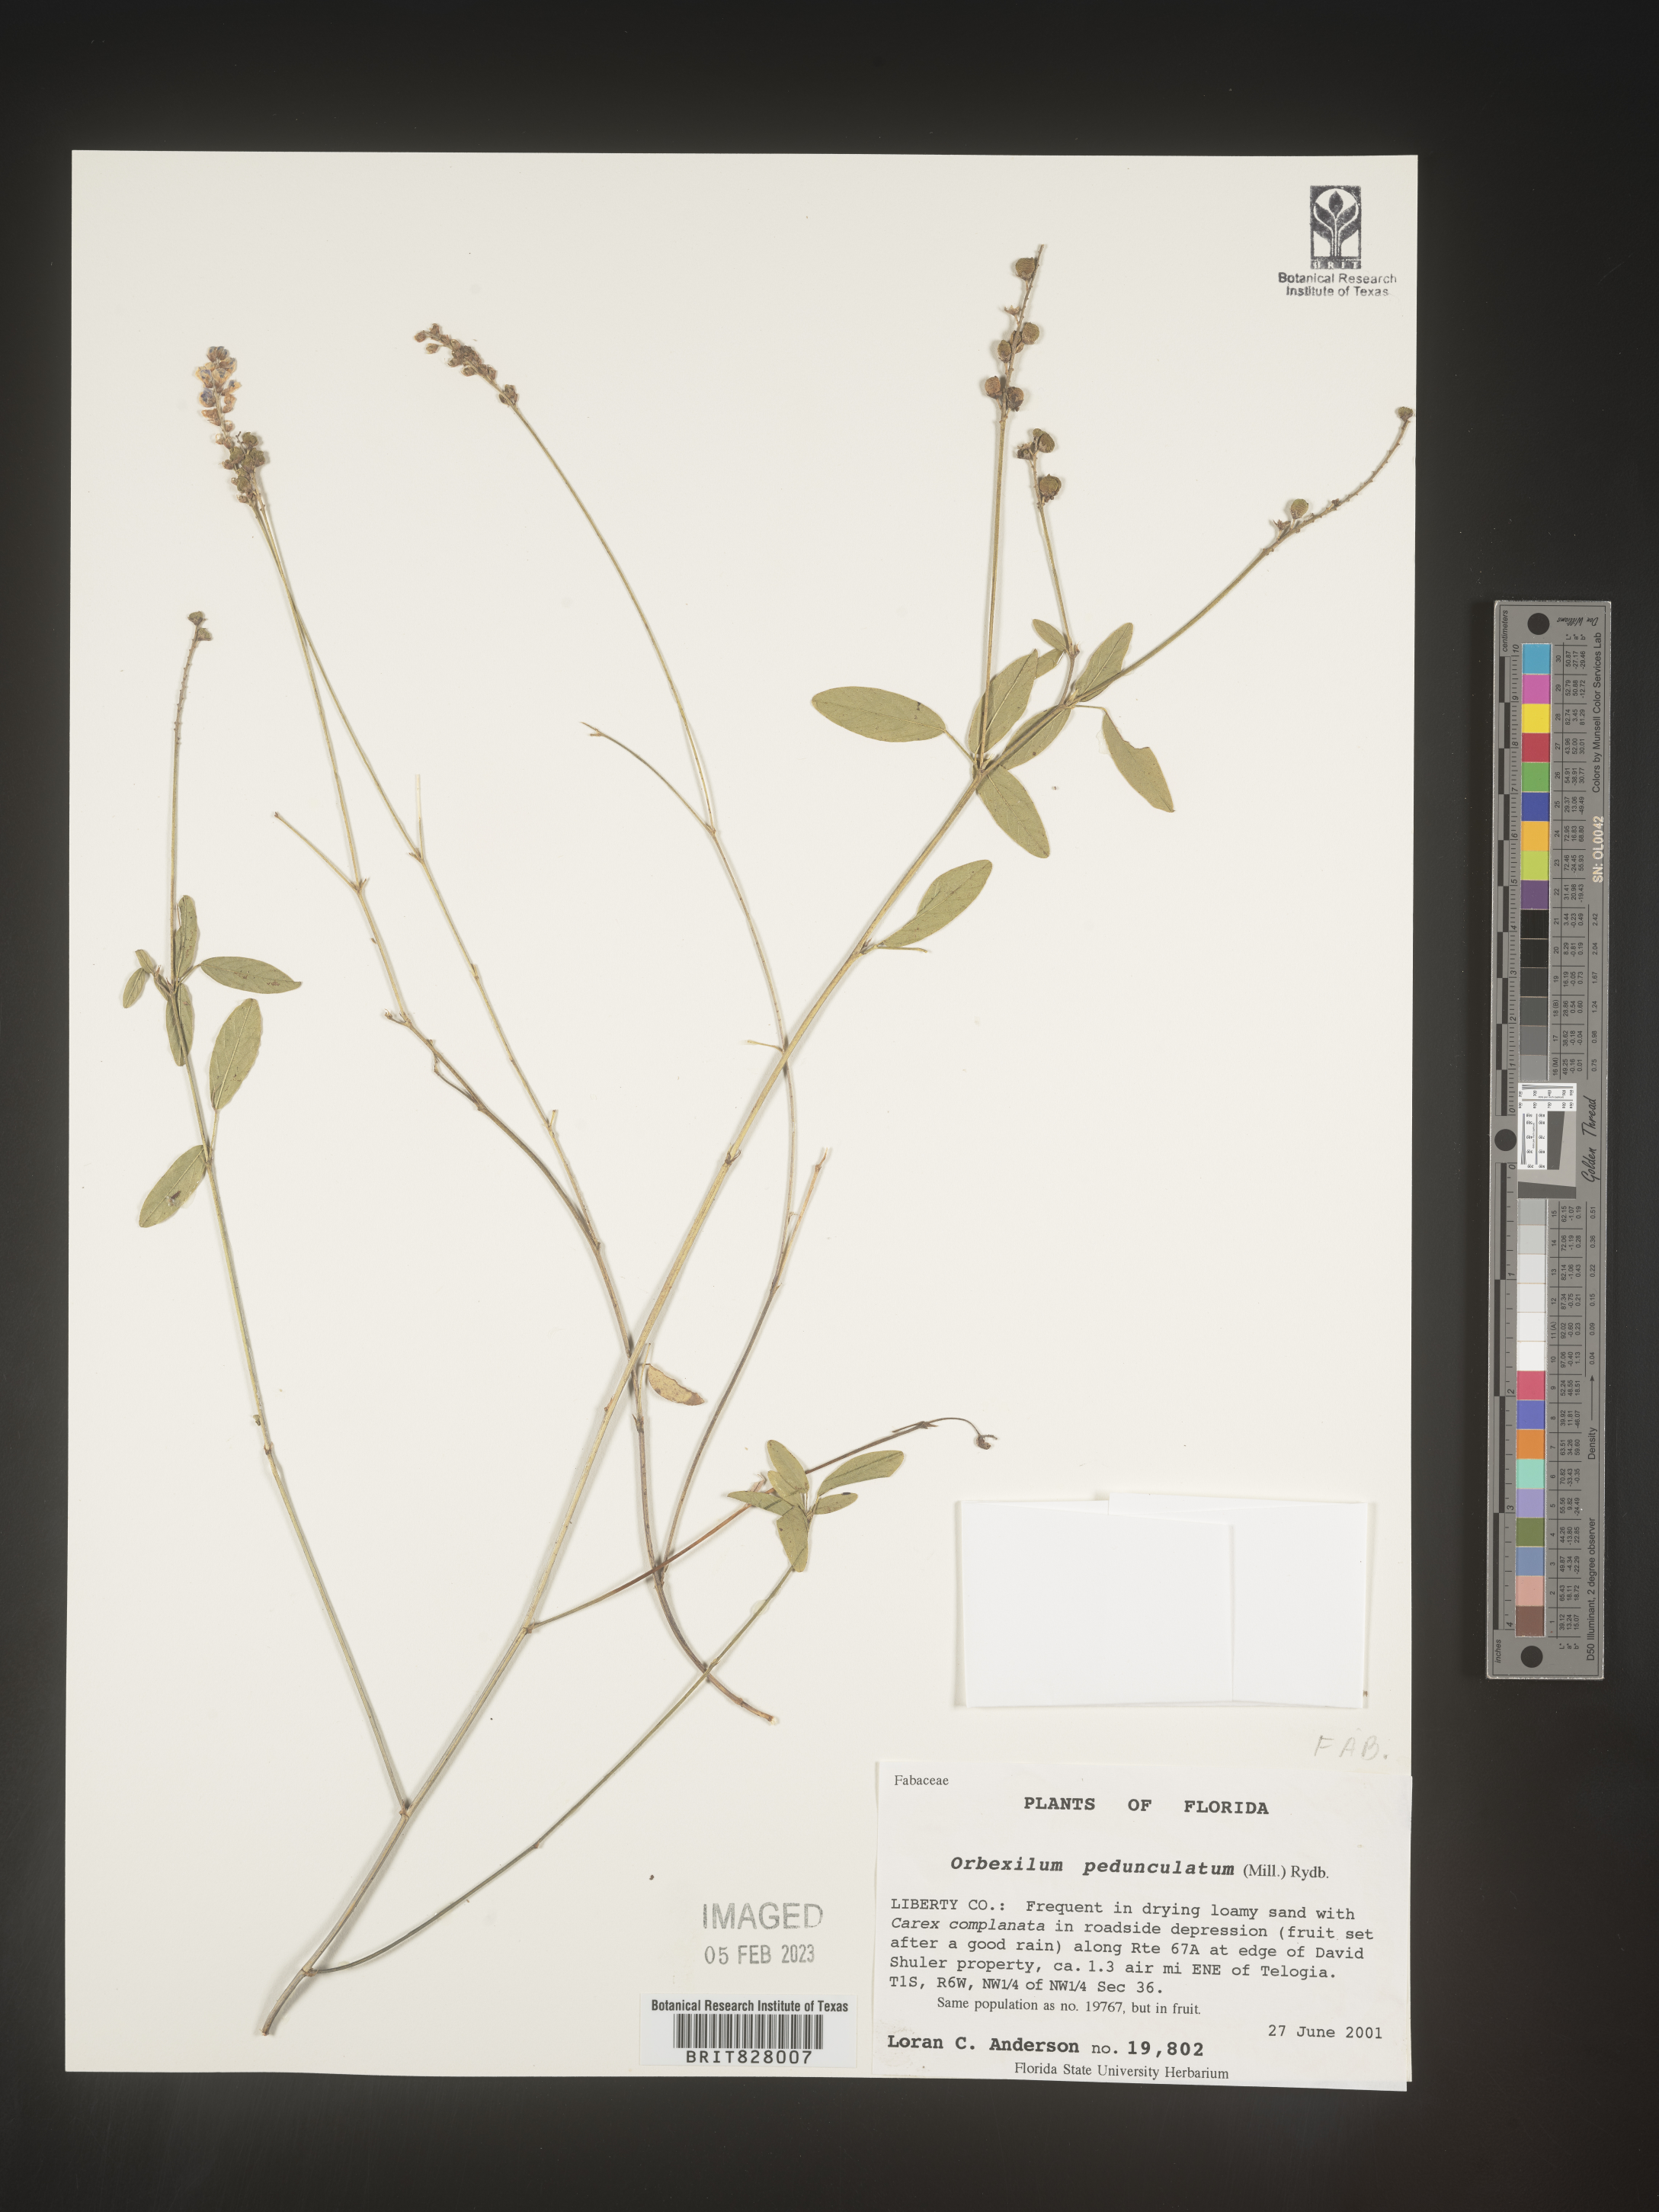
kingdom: Plantae
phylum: Tracheophyta
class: Magnoliopsida
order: Fabales
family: Fabaceae
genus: Orbexilum
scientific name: Orbexilum pedunculatum
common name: Sampson's snakeroot
